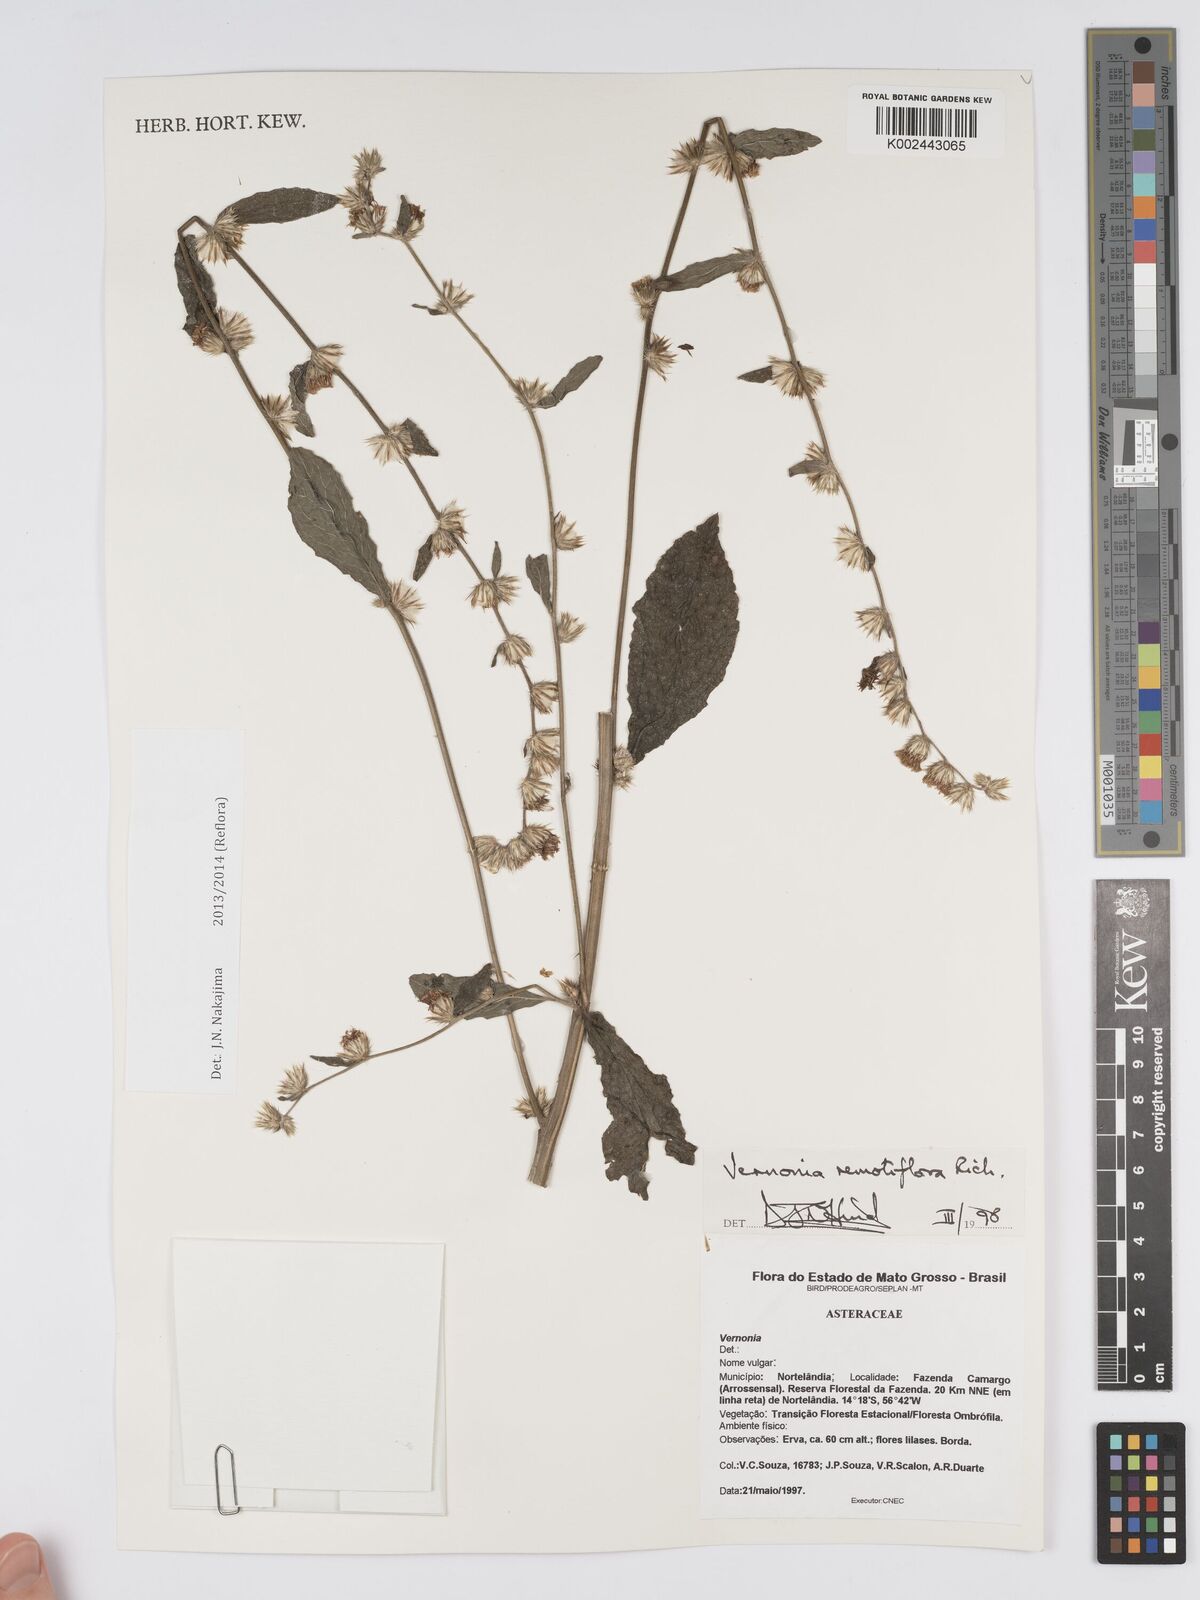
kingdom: Plantae
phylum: Tracheophyta
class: Magnoliopsida
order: Asterales
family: Asteraceae
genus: Lepidaploa
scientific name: Lepidaploa remotiflora
